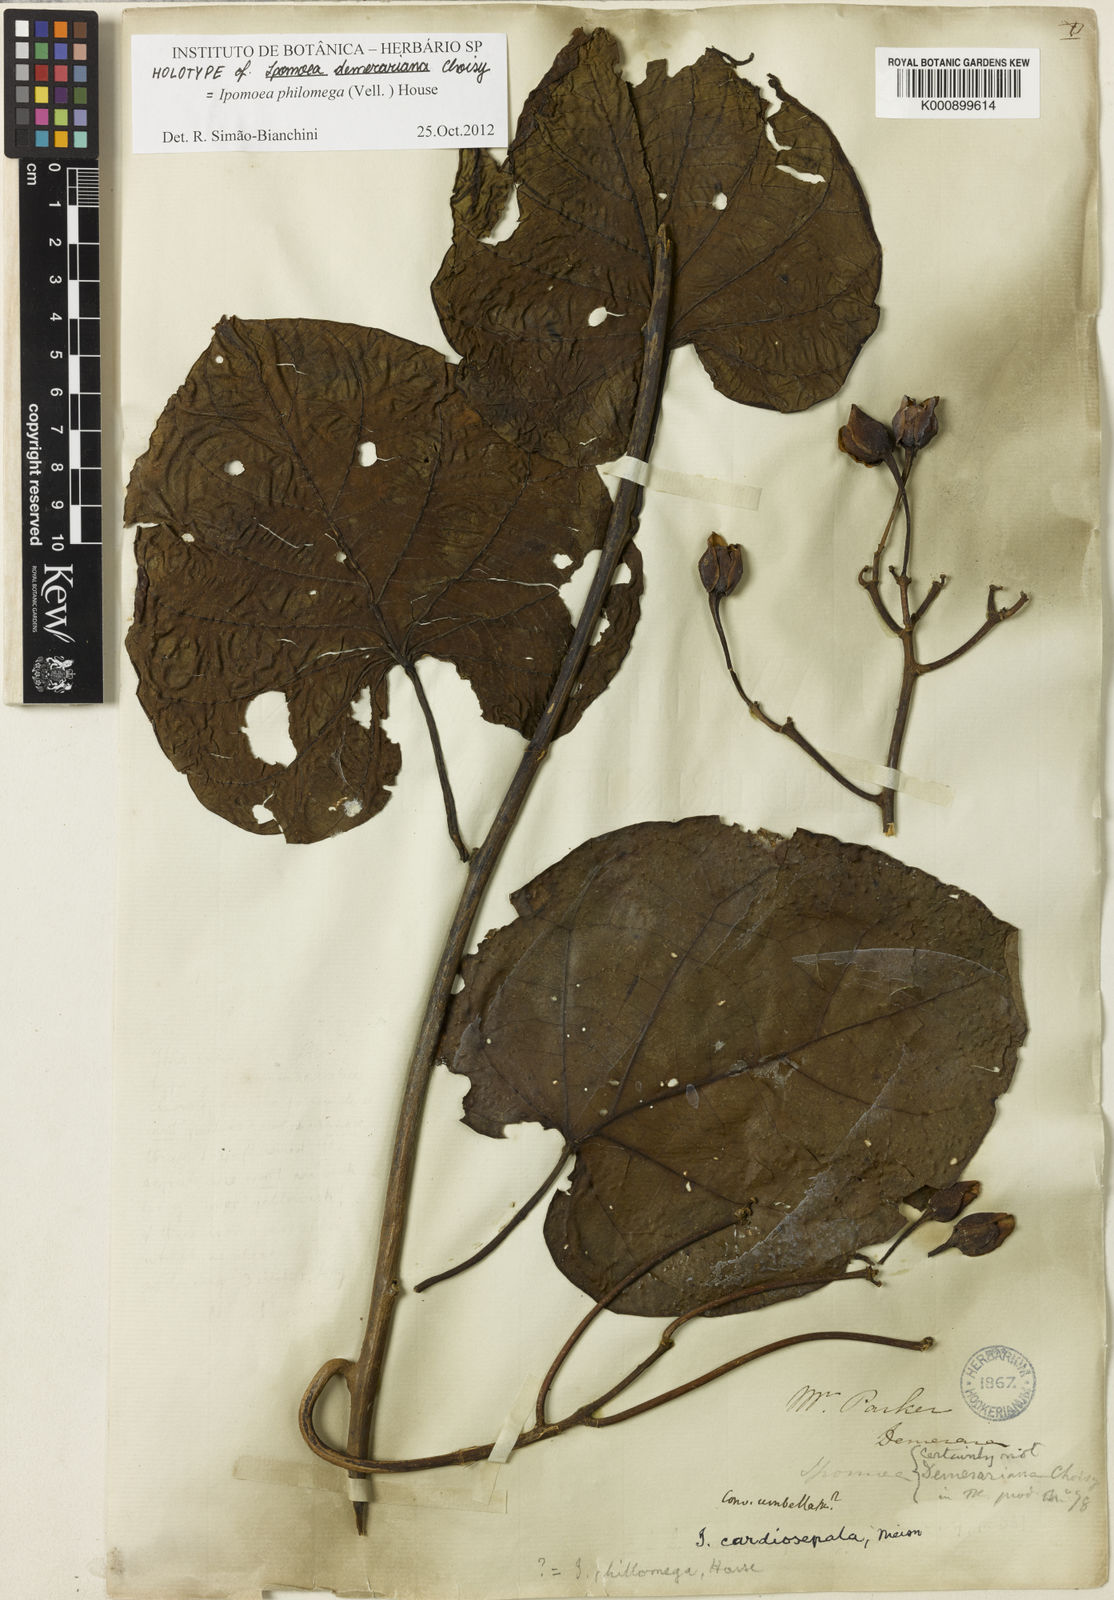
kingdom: Plantae
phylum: Tracheophyta
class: Magnoliopsida
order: Solanales
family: Convolvulaceae
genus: Ipomoea
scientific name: Ipomoea philomega
